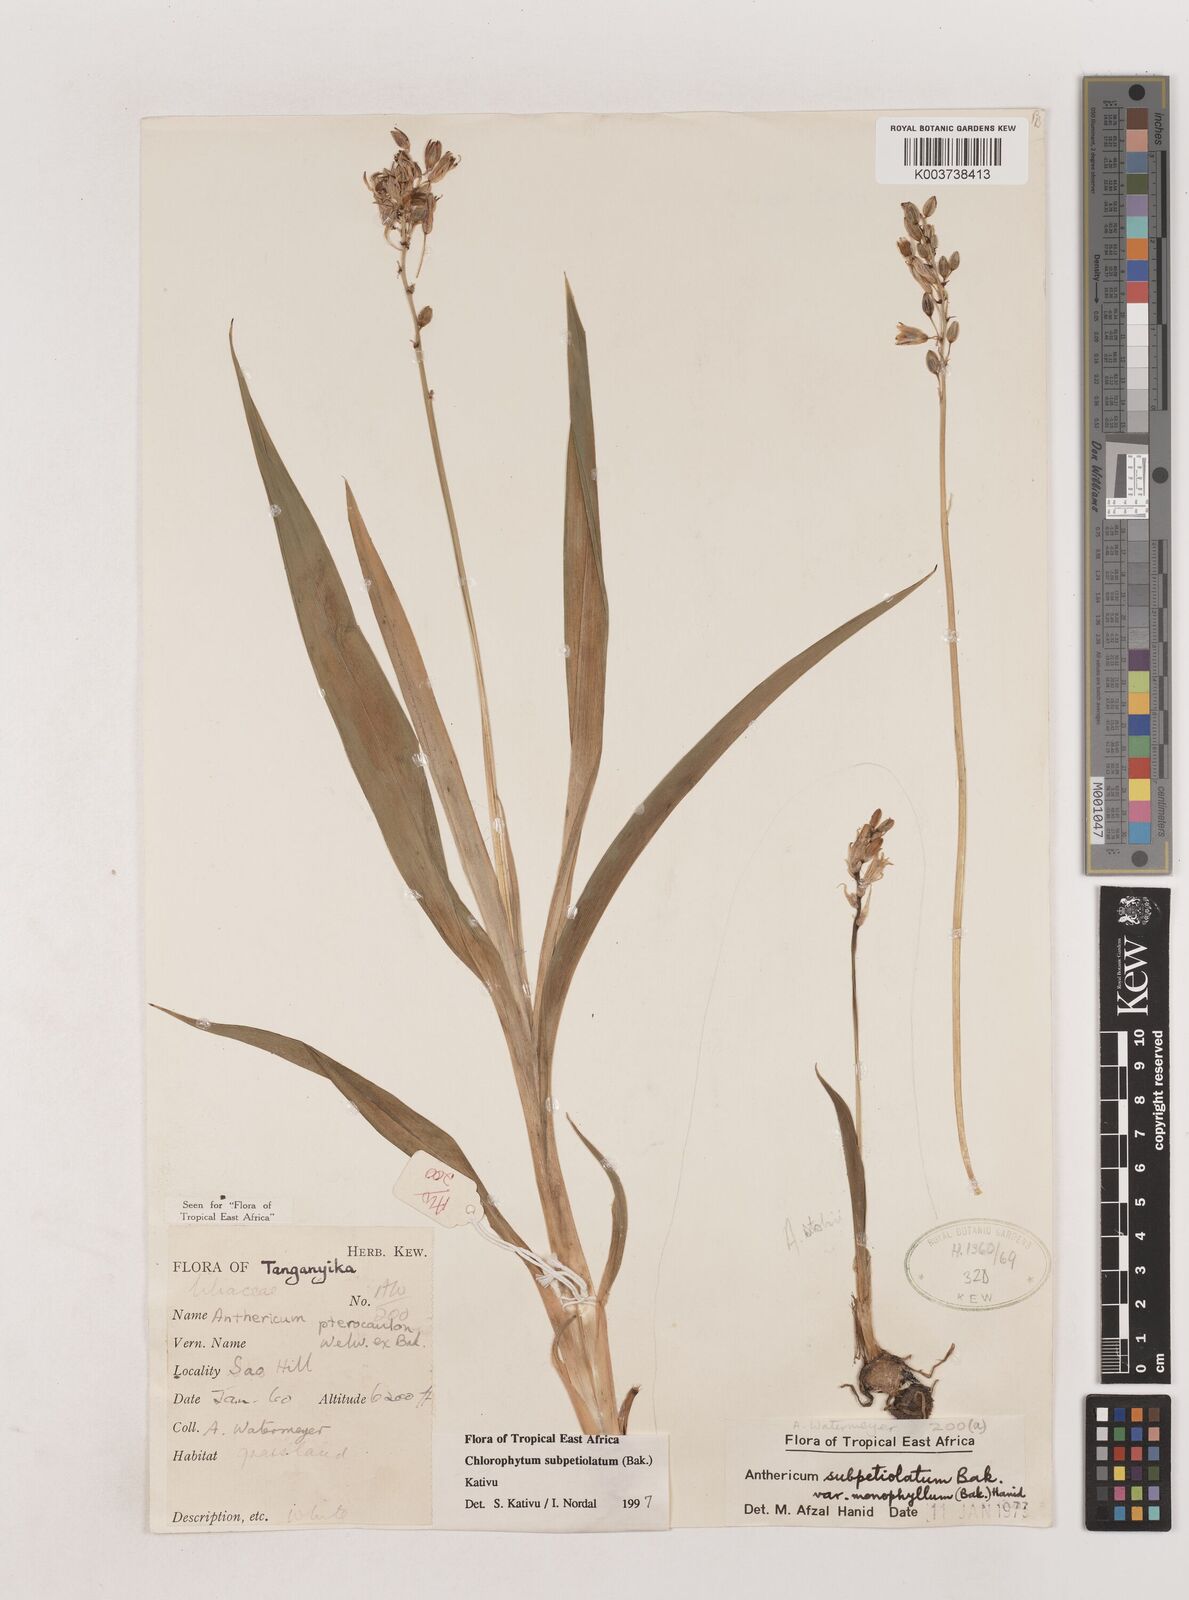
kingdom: Plantae
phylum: Tracheophyta
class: Liliopsida
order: Asparagales
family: Asparagaceae
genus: Chlorophytum
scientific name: Chlorophytum subpetiolatum
